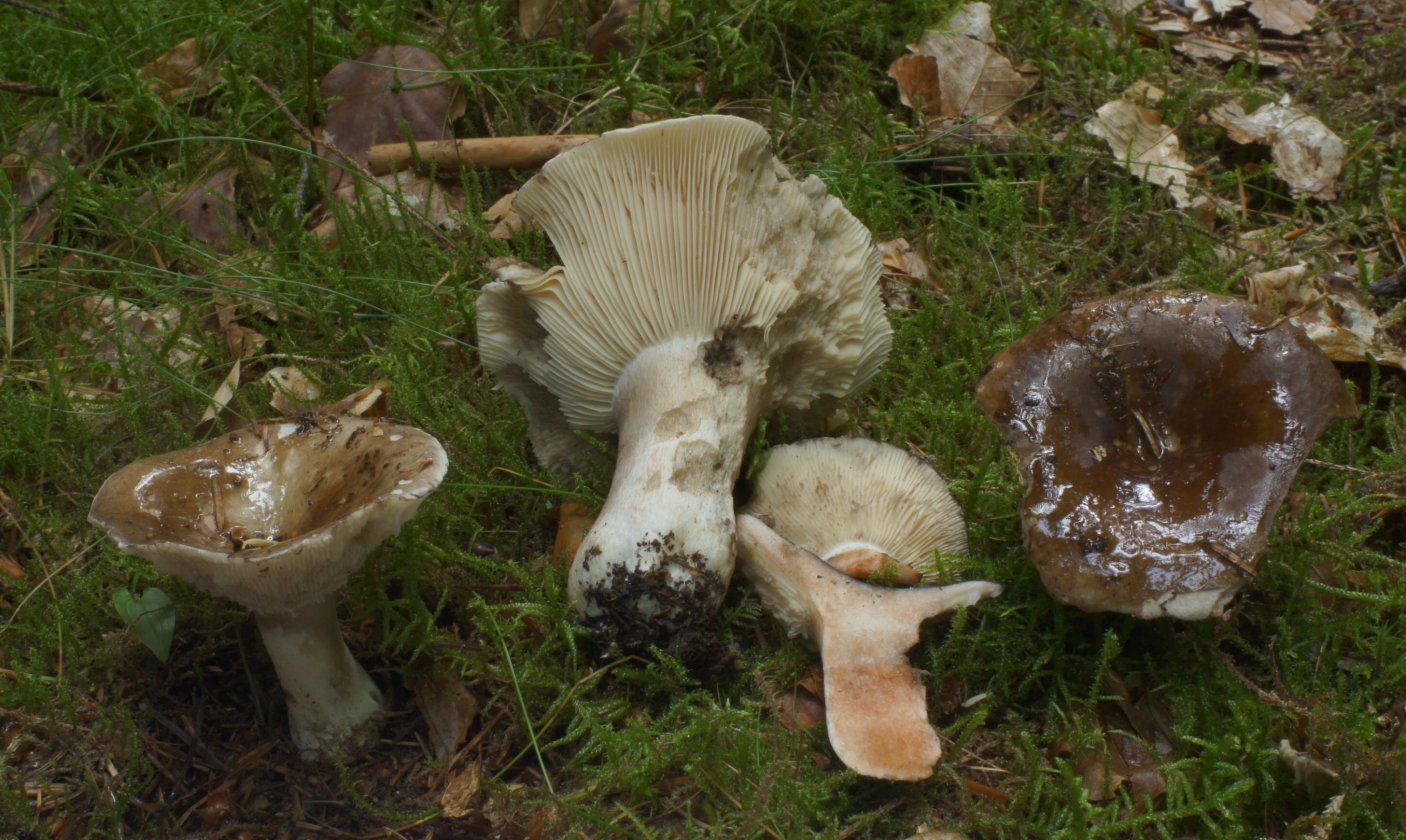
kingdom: Fungi
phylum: Basidiomycota
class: Agaricomycetes
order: Russulales
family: Russulaceae
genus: Russula
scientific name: Russula densifolia
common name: tætbladet skørhat
